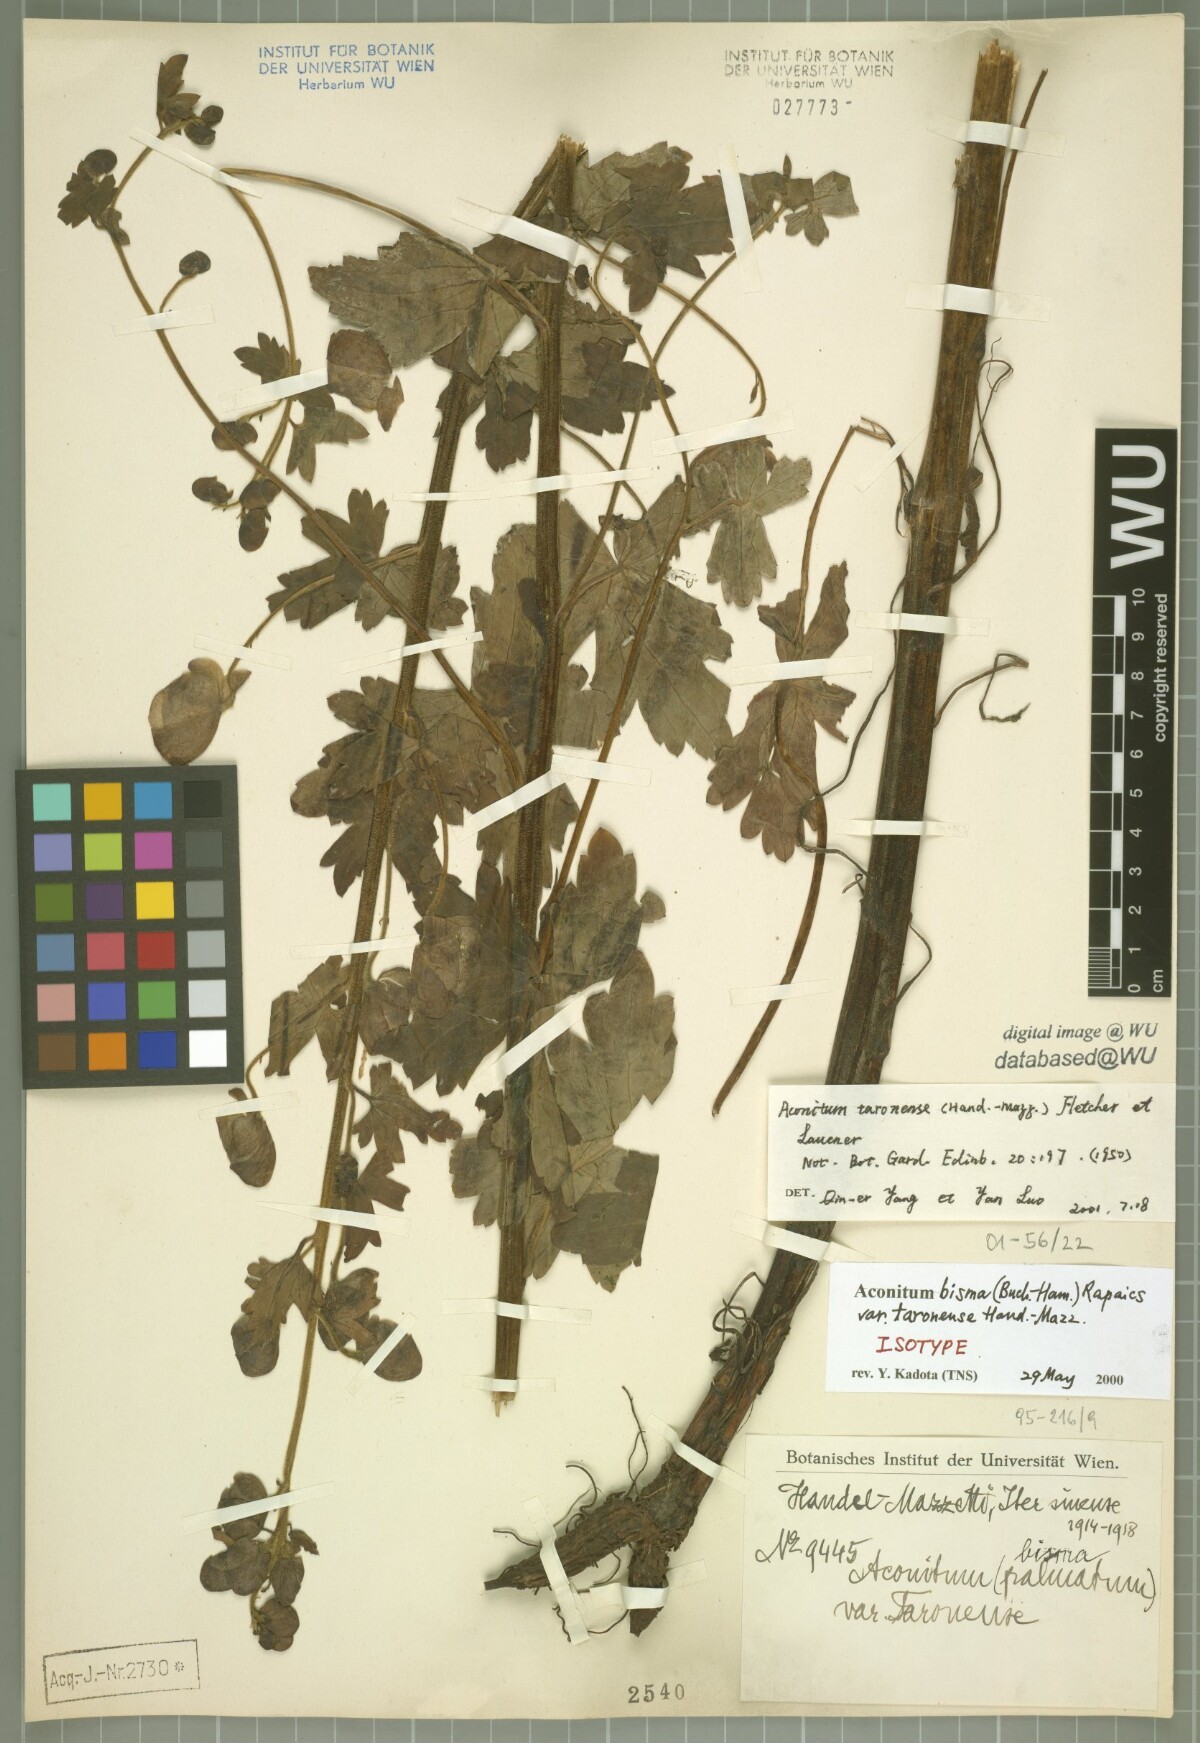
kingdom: Plantae
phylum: Tracheophyta
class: Magnoliopsida
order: Ranunculales
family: Ranunculaceae
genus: Aconitum
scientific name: Aconitum taronense
